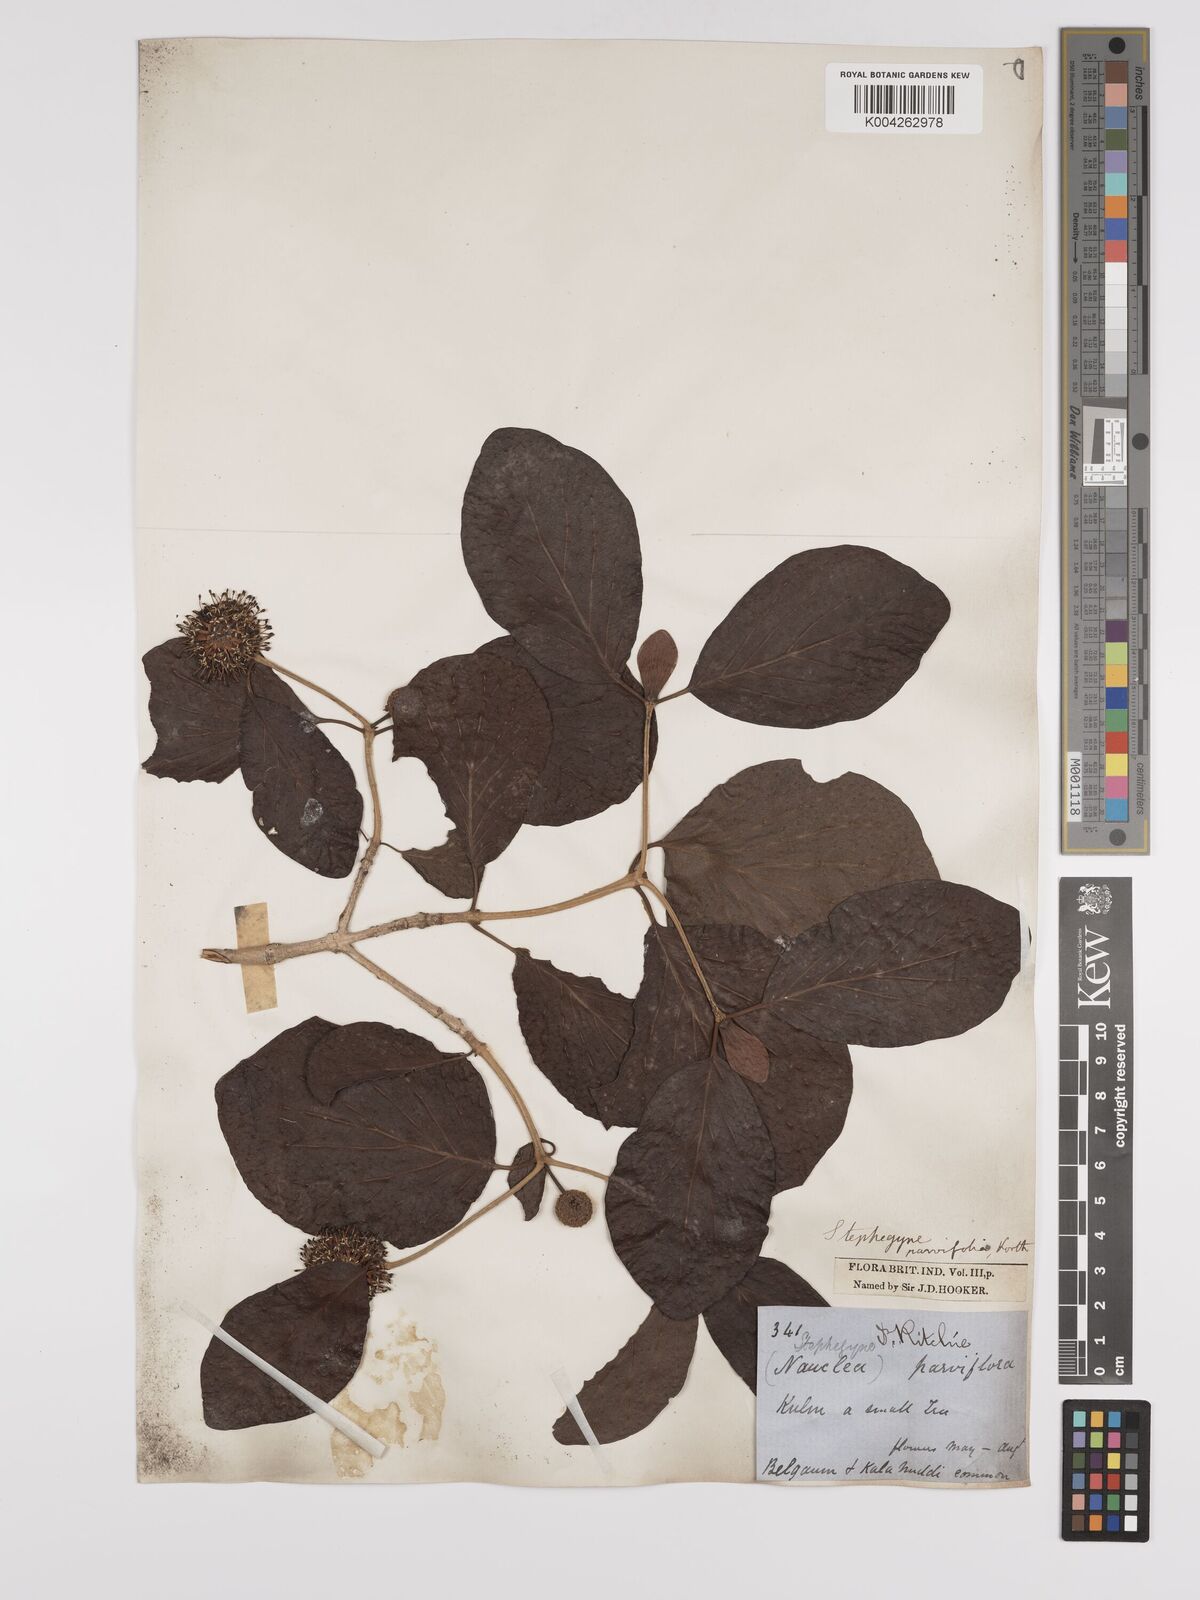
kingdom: Plantae
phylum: Tracheophyta
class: Magnoliopsida
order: Gentianales
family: Rubiaceae
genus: Mitragyna
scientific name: Mitragyna parvifolia
